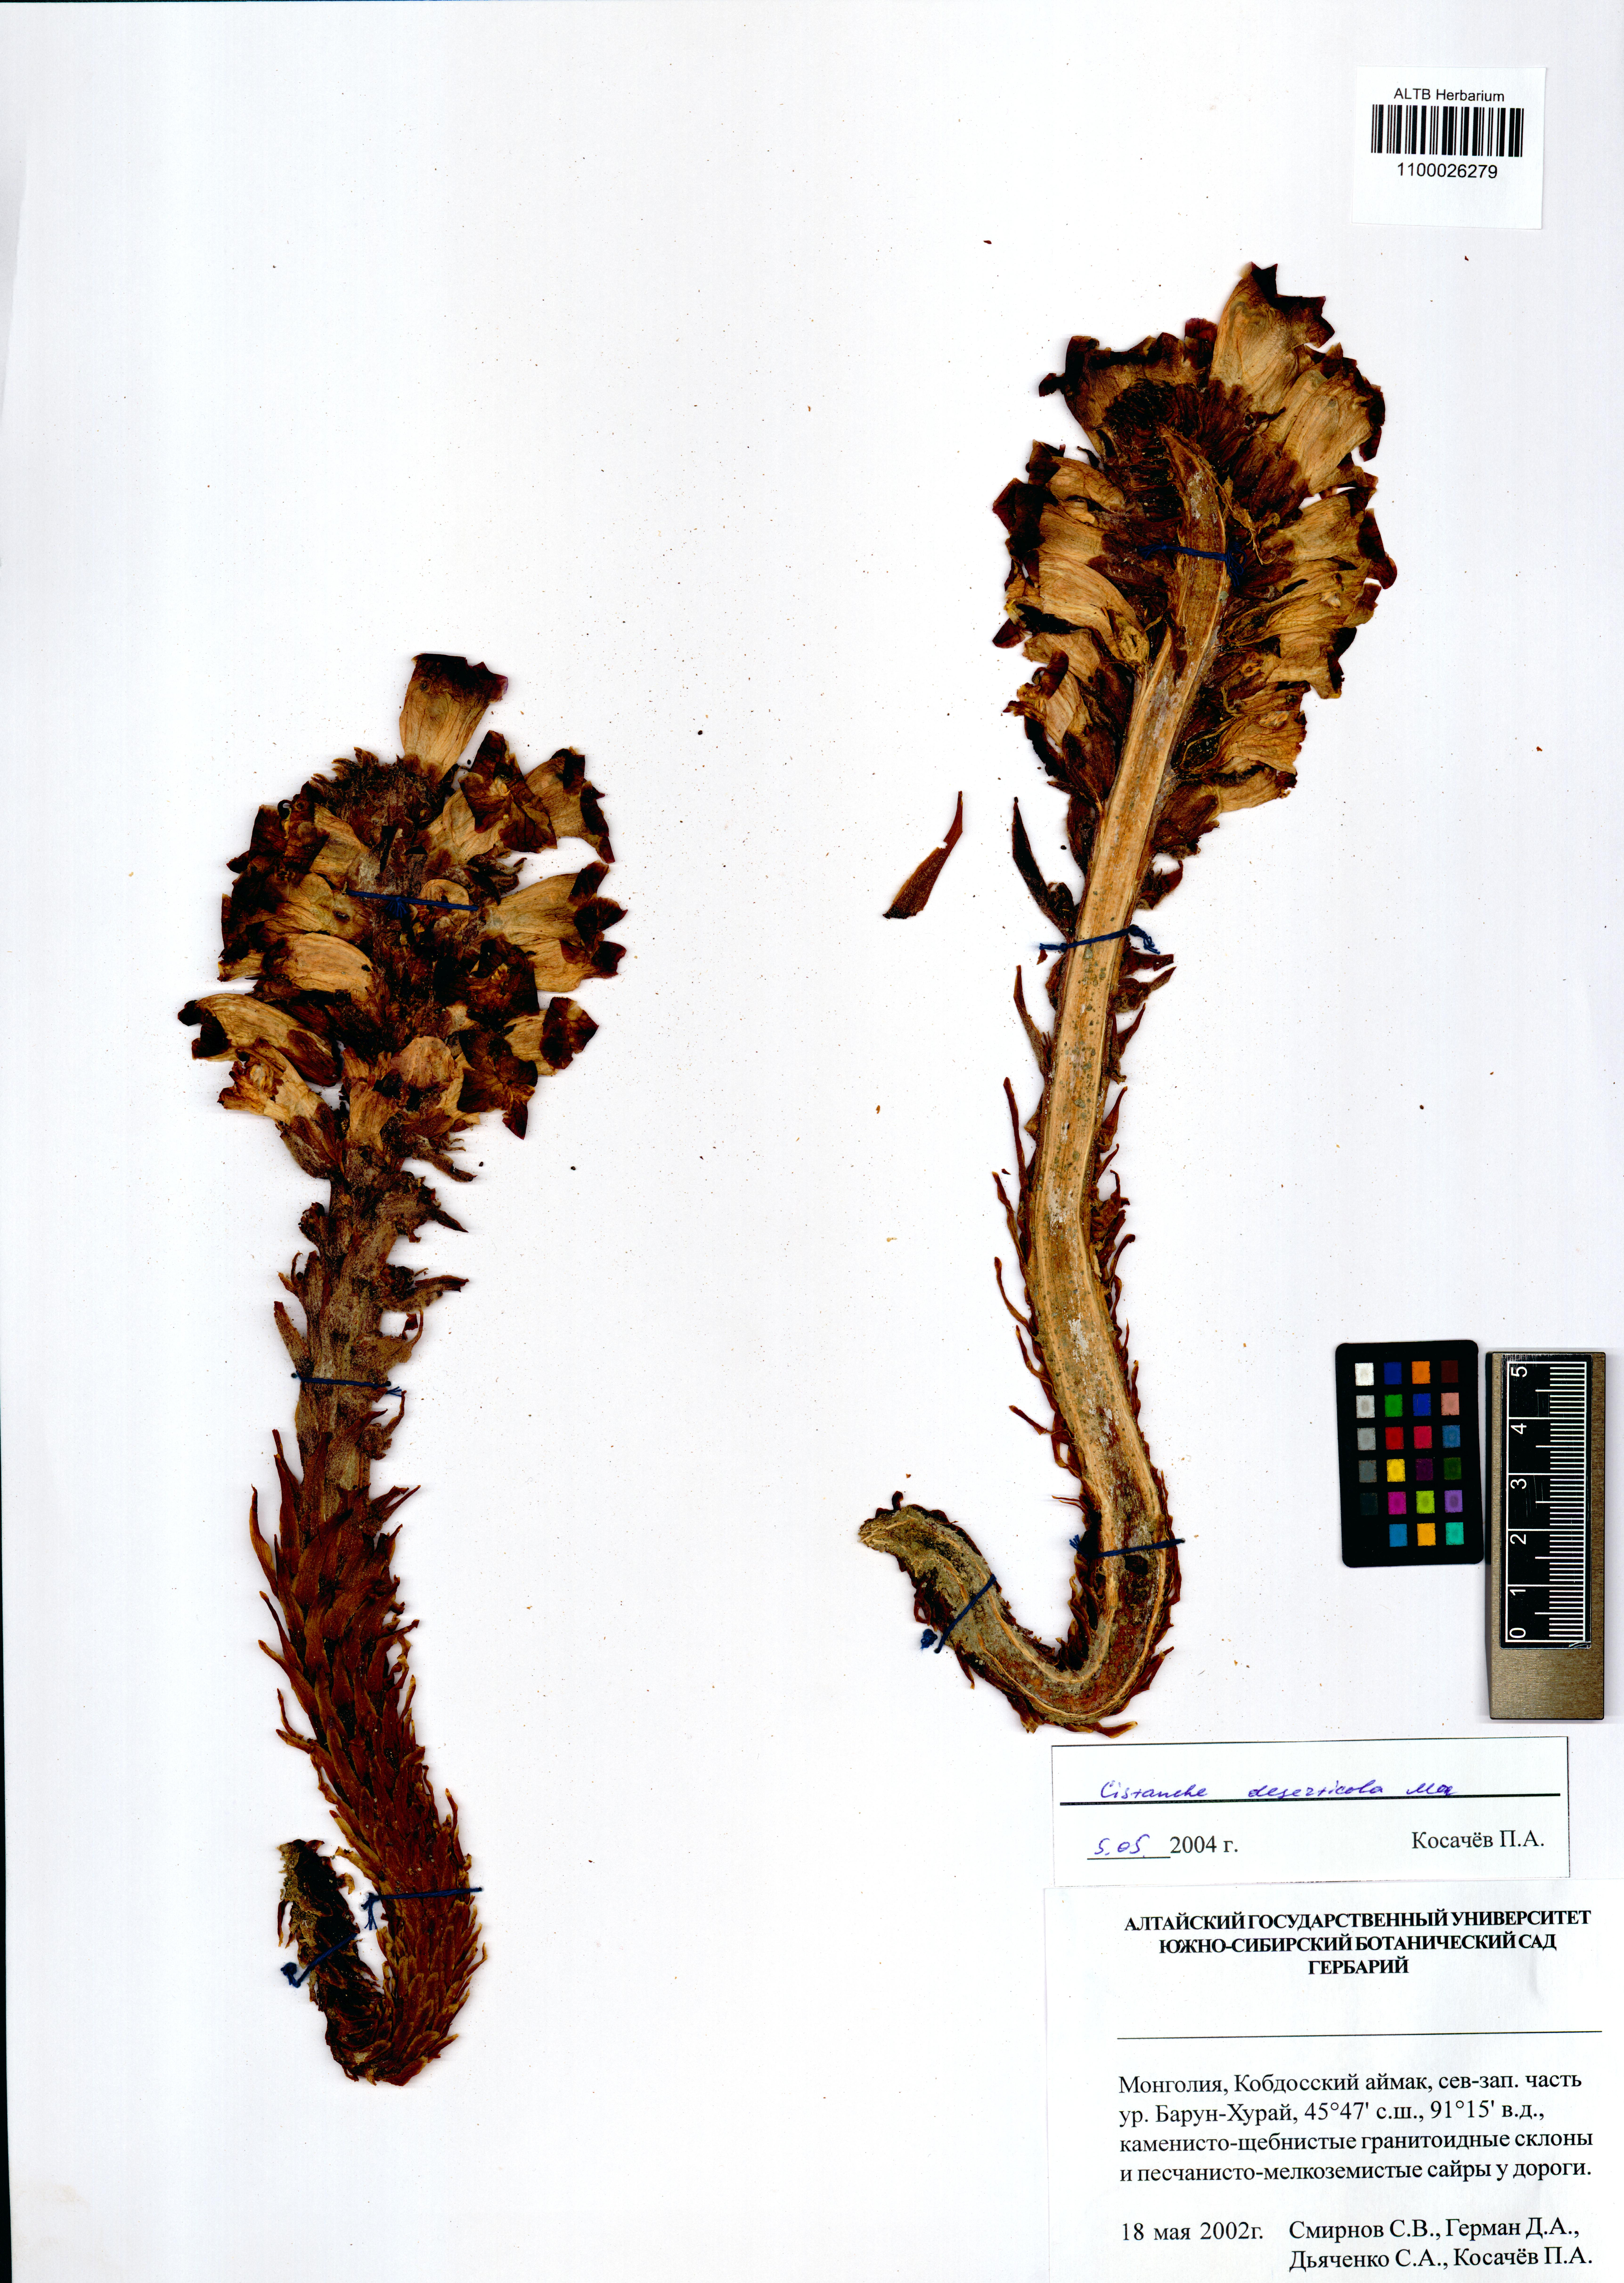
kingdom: Plantae
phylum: Tracheophyta
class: Magnoliopsida
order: Lamiales
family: Orobanchaceae
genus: Cistanche
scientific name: Cistanche deserticola
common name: Desert-broomrape
